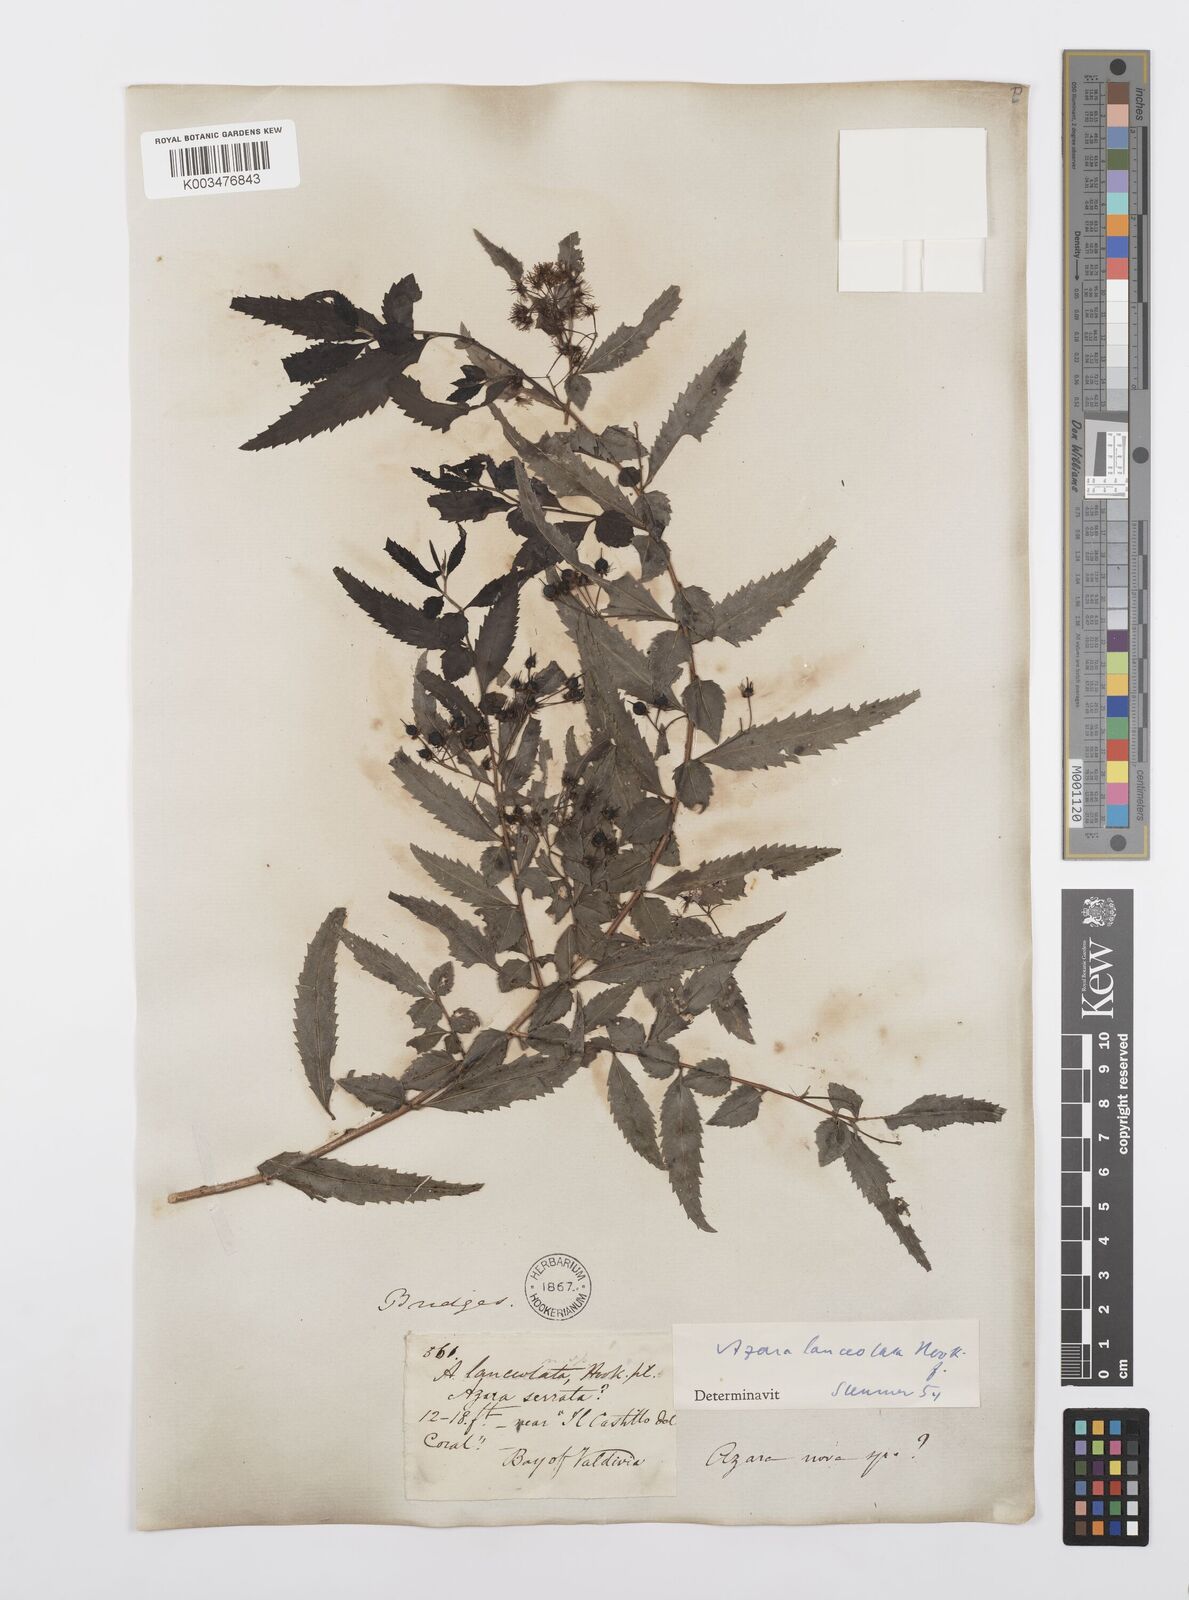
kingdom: Plantae
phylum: Tracheophyta
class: Magnoliopsida
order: Malpighiales
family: Salicaceae
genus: Azara
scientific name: Azara lanceolata
